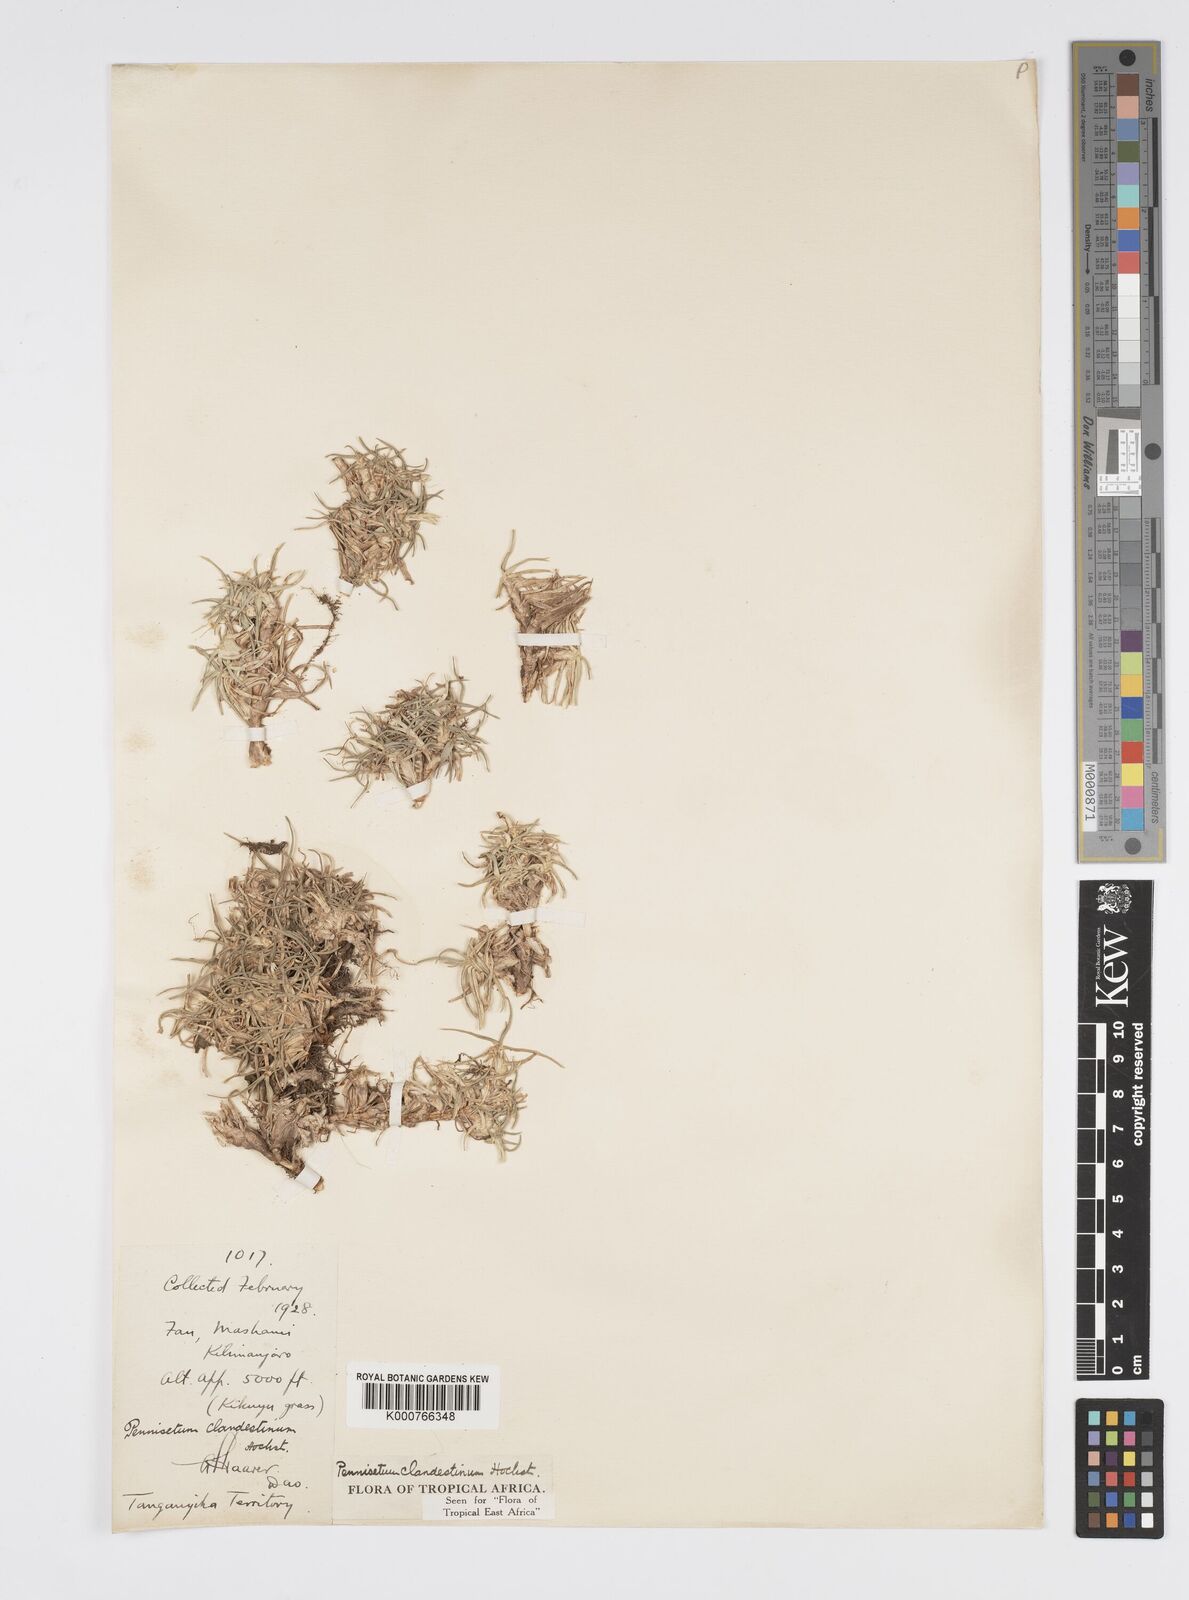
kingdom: Plantae
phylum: Tracheophyta
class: Liliopsida
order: Poales
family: Poaceae
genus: Cenchrus
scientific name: Cenchrus clandestinus
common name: Kikuyugrass
